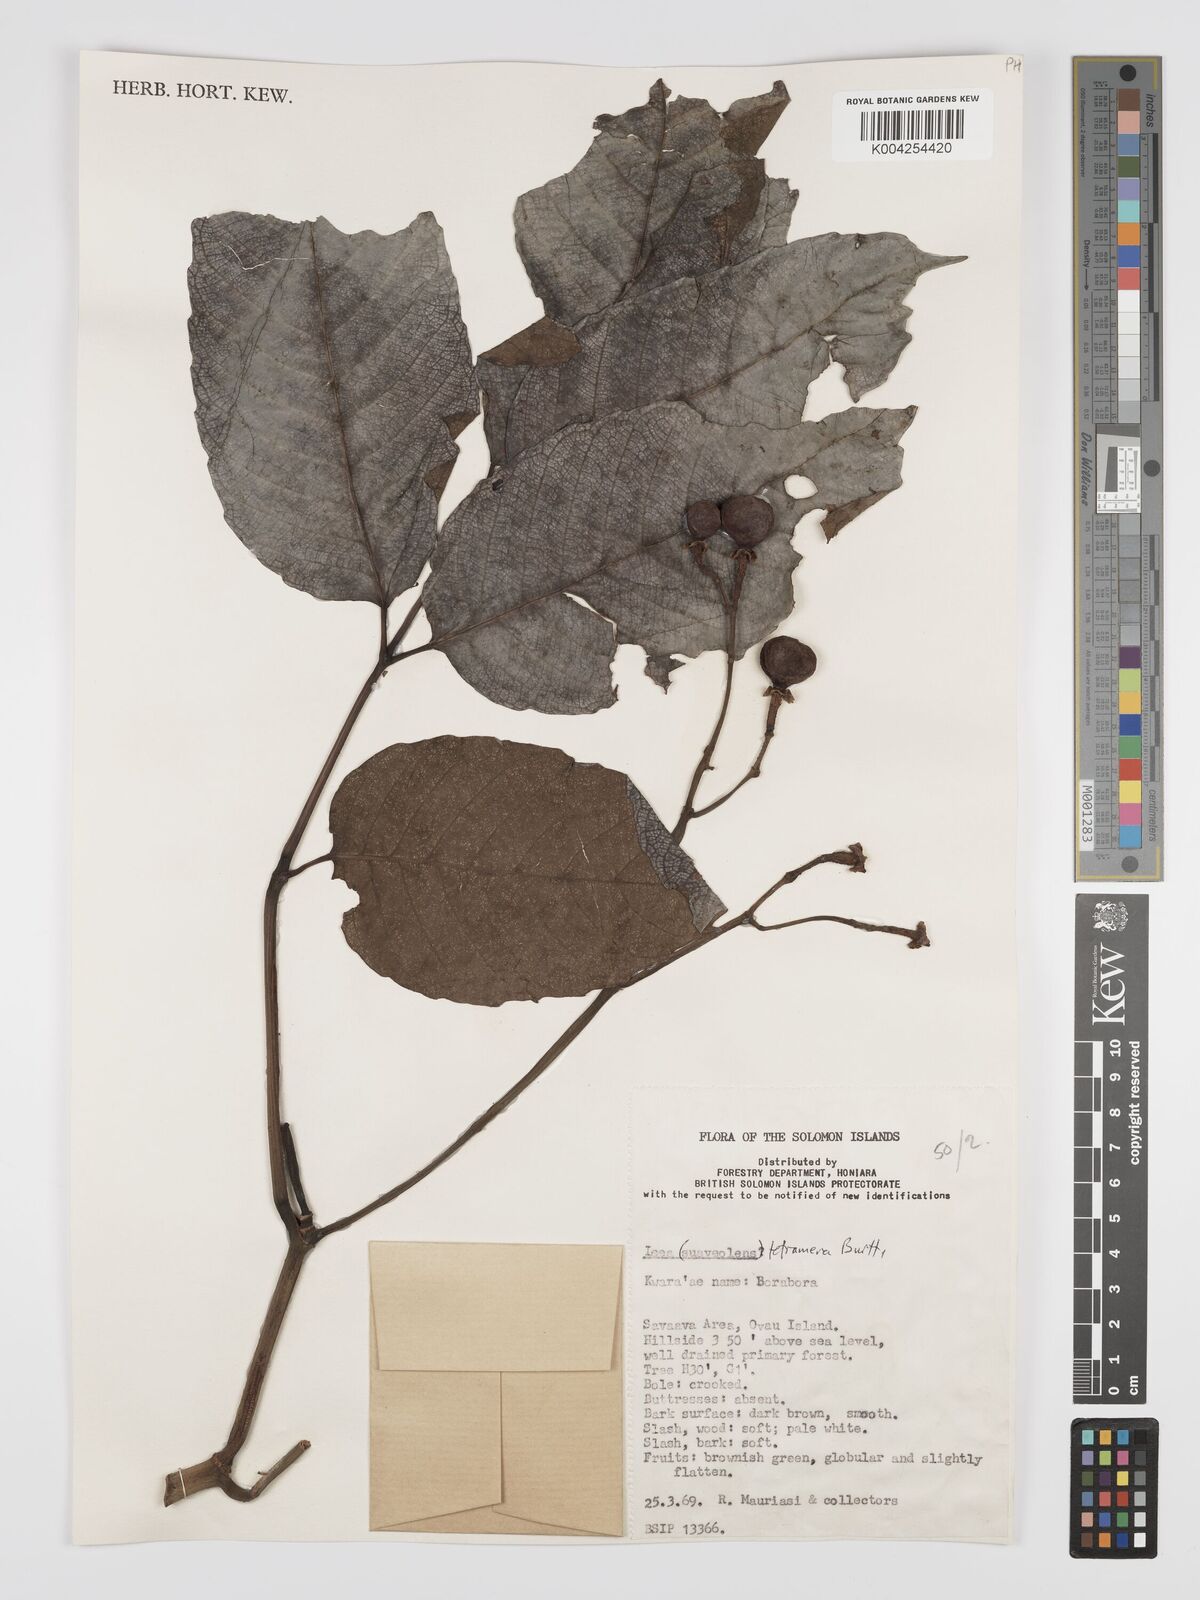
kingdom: Plantae
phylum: Tracheophyta
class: Magnoliopsida
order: Vitales
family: Vitaceae
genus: Leea
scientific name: Leea tetramera
